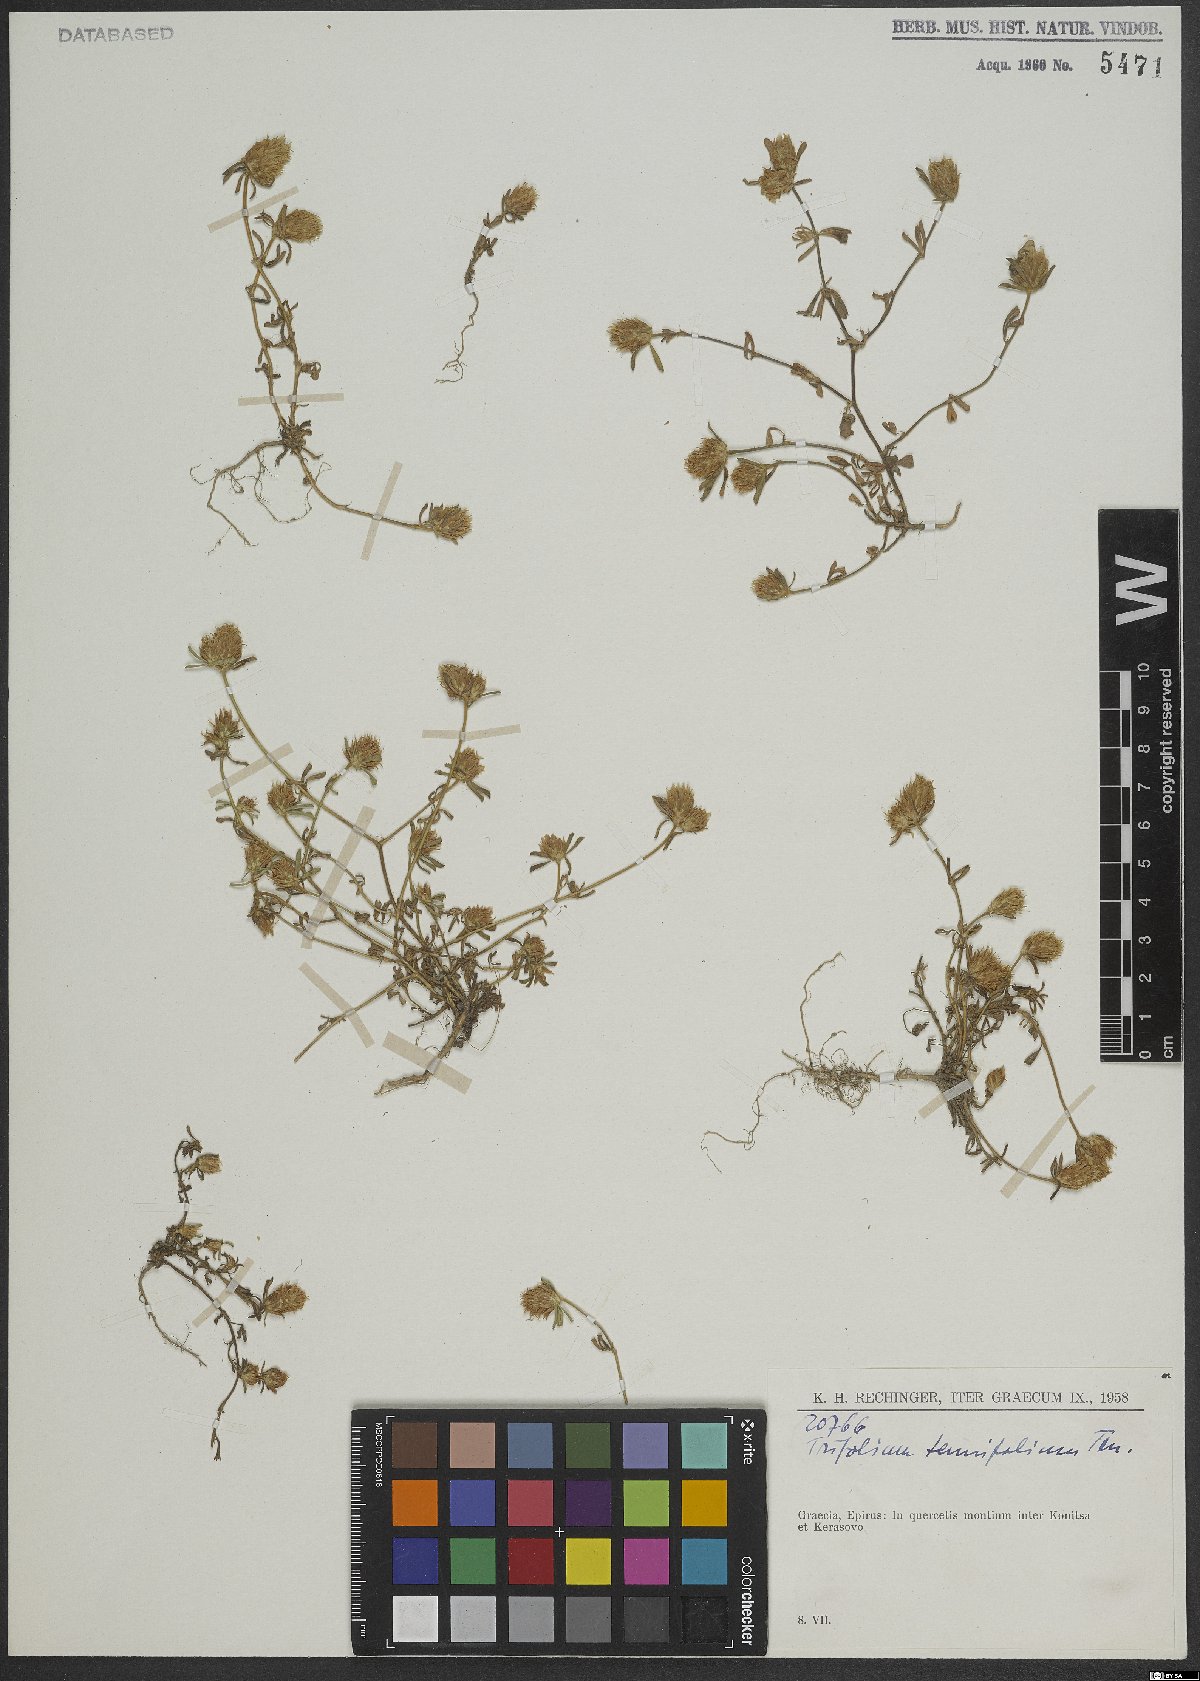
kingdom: Plantae
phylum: Tracheophyta
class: Magnoliopsida
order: Fabales
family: Fabaceae
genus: Trifolium
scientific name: Trifolium tenuifolium
